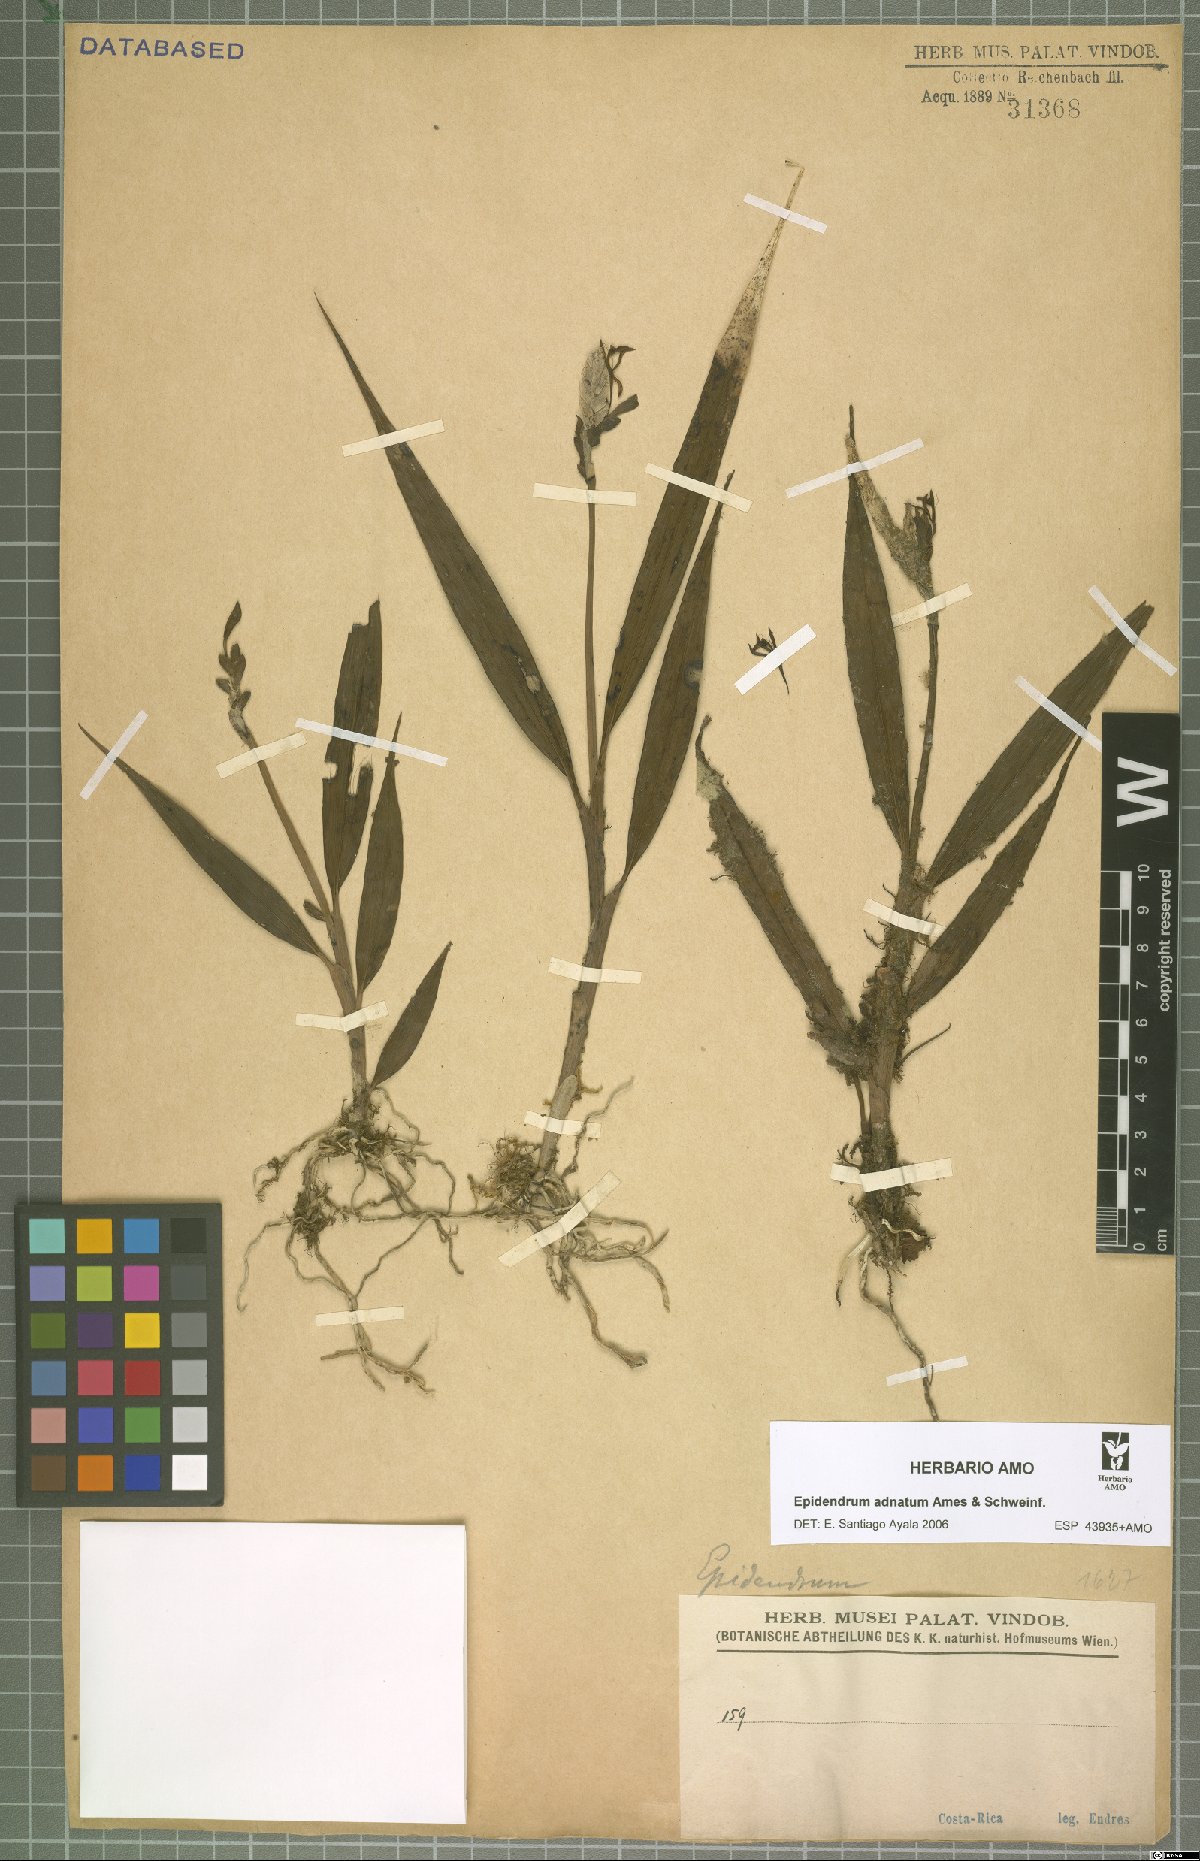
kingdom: Plantae
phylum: Tracheophyta
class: Liliopsida
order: Asparagales
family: Orchidaceae
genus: Epidendrum
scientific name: Epidendrum adnatum
